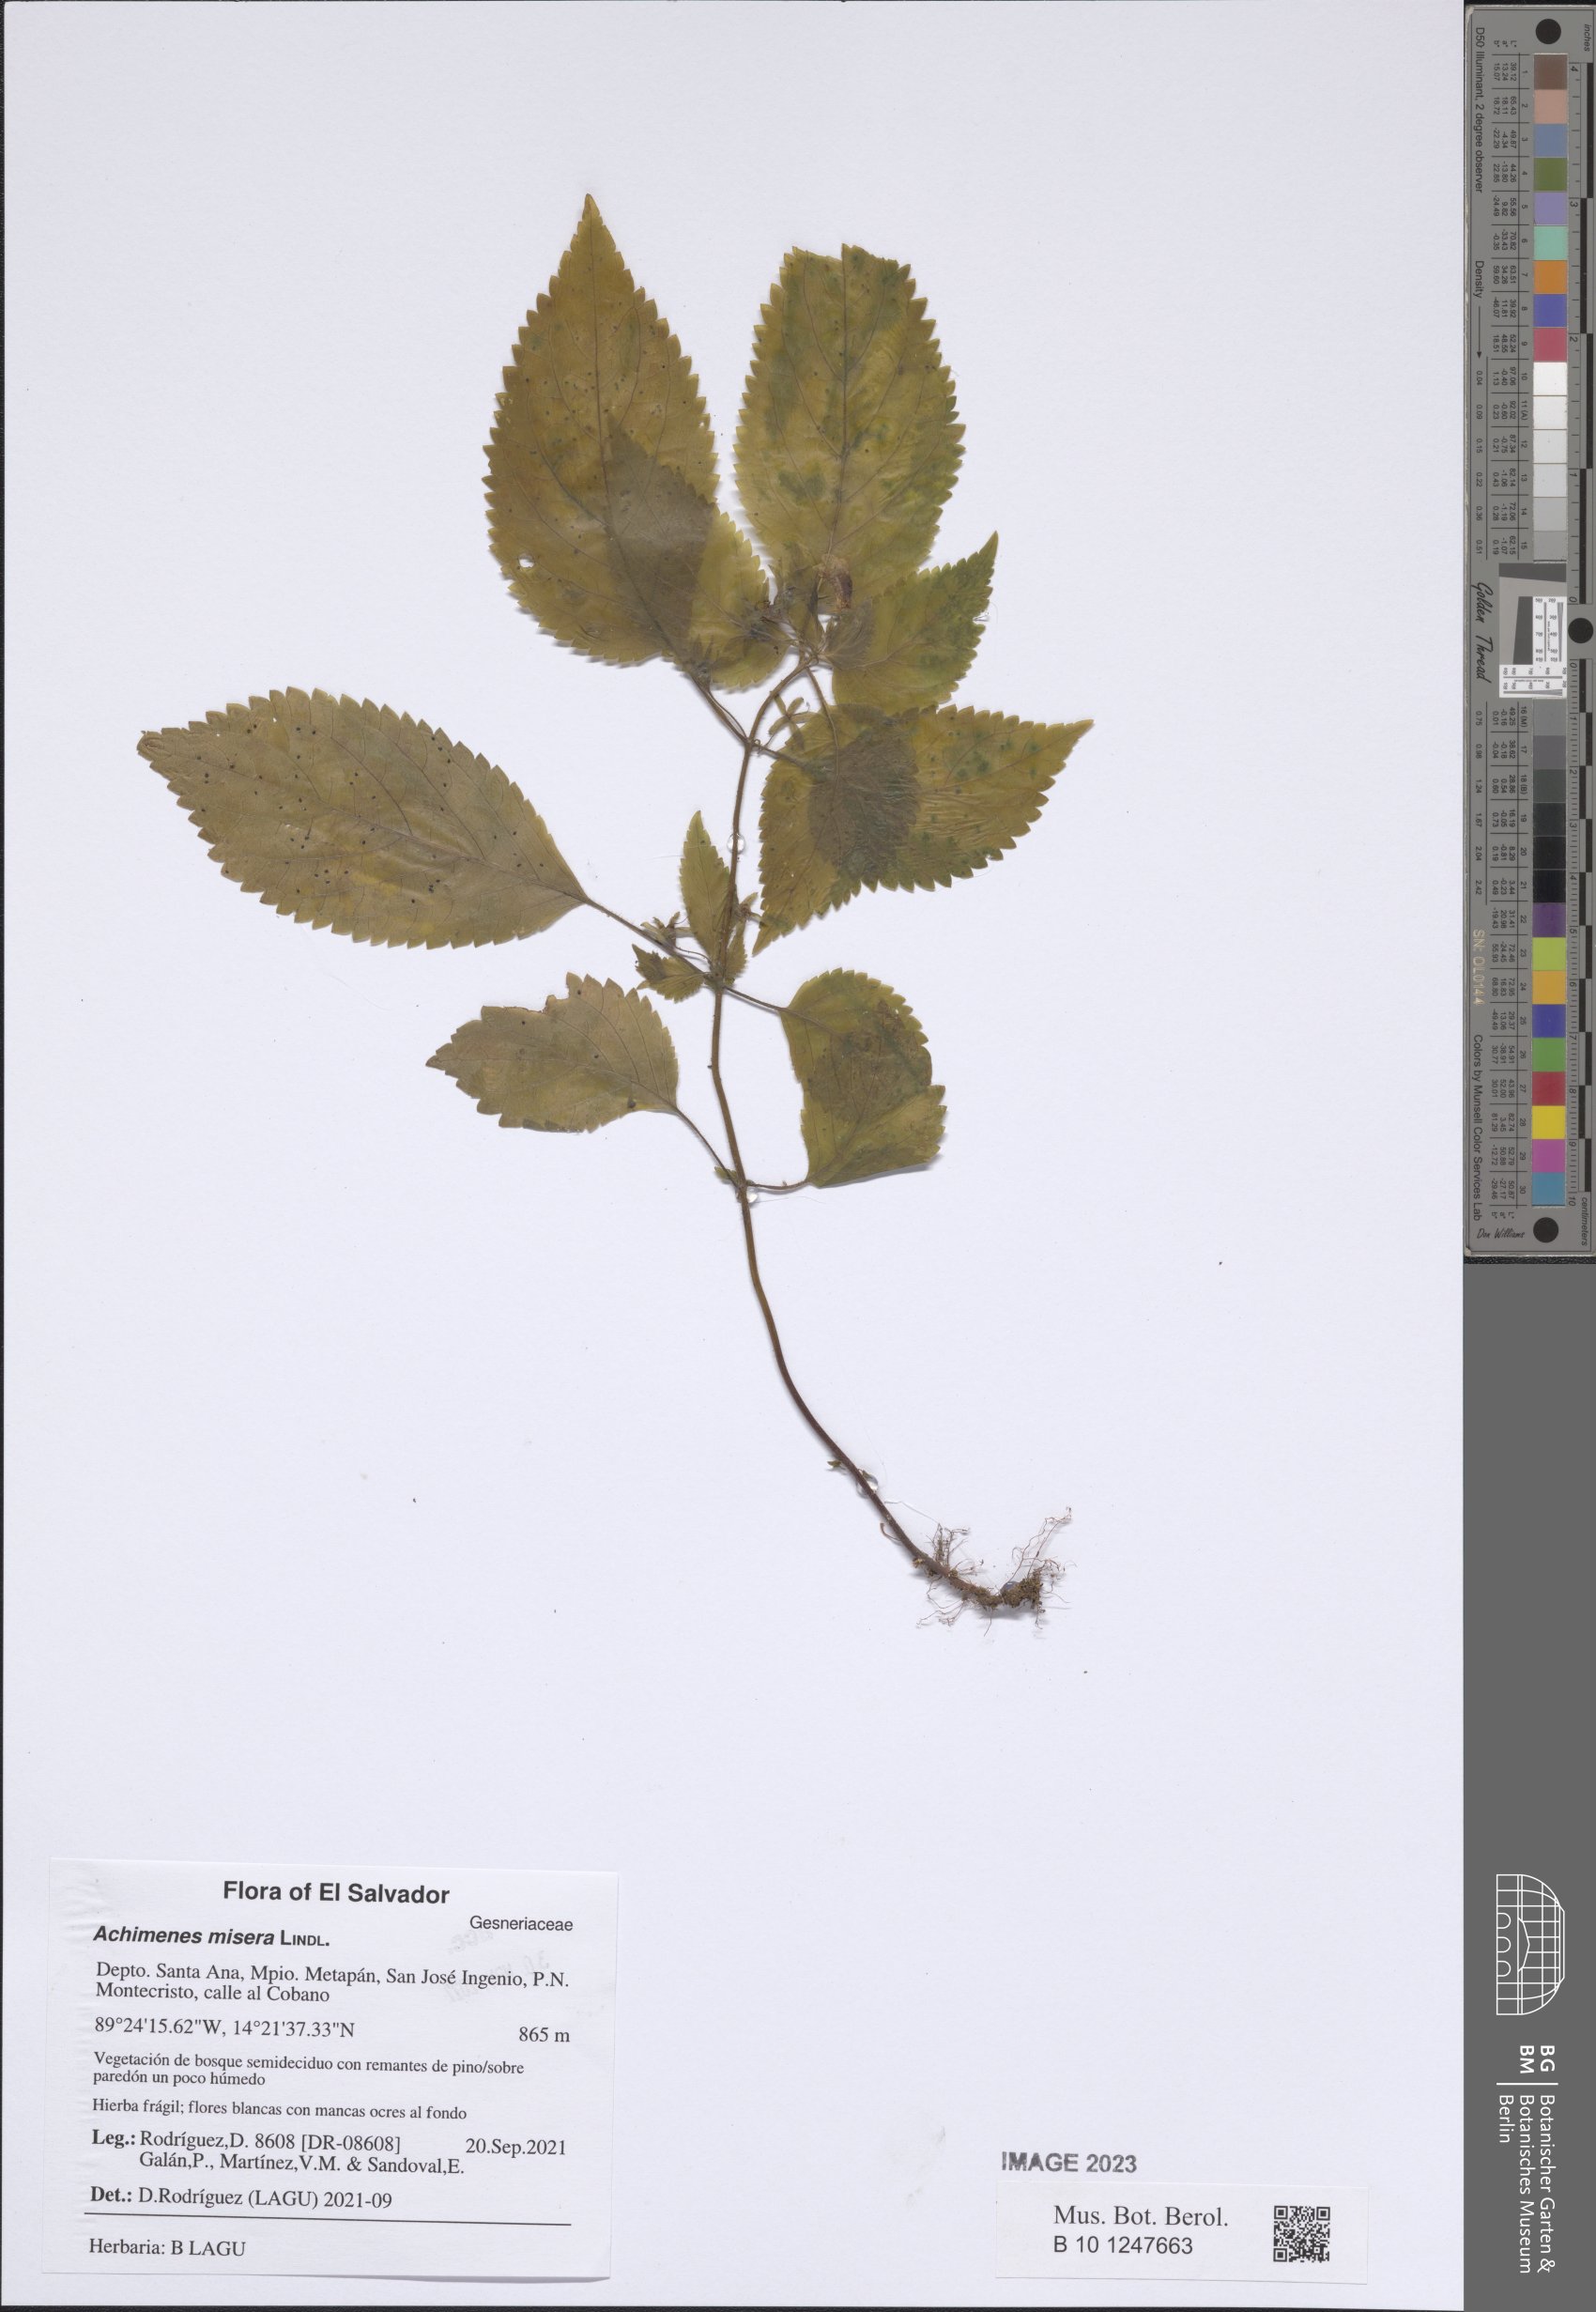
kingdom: Plantae
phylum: Tracheophyta
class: Magnoliopsida
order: Lamiales
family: Gesneriaceae
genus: Achimenes
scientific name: Achimenes misera
